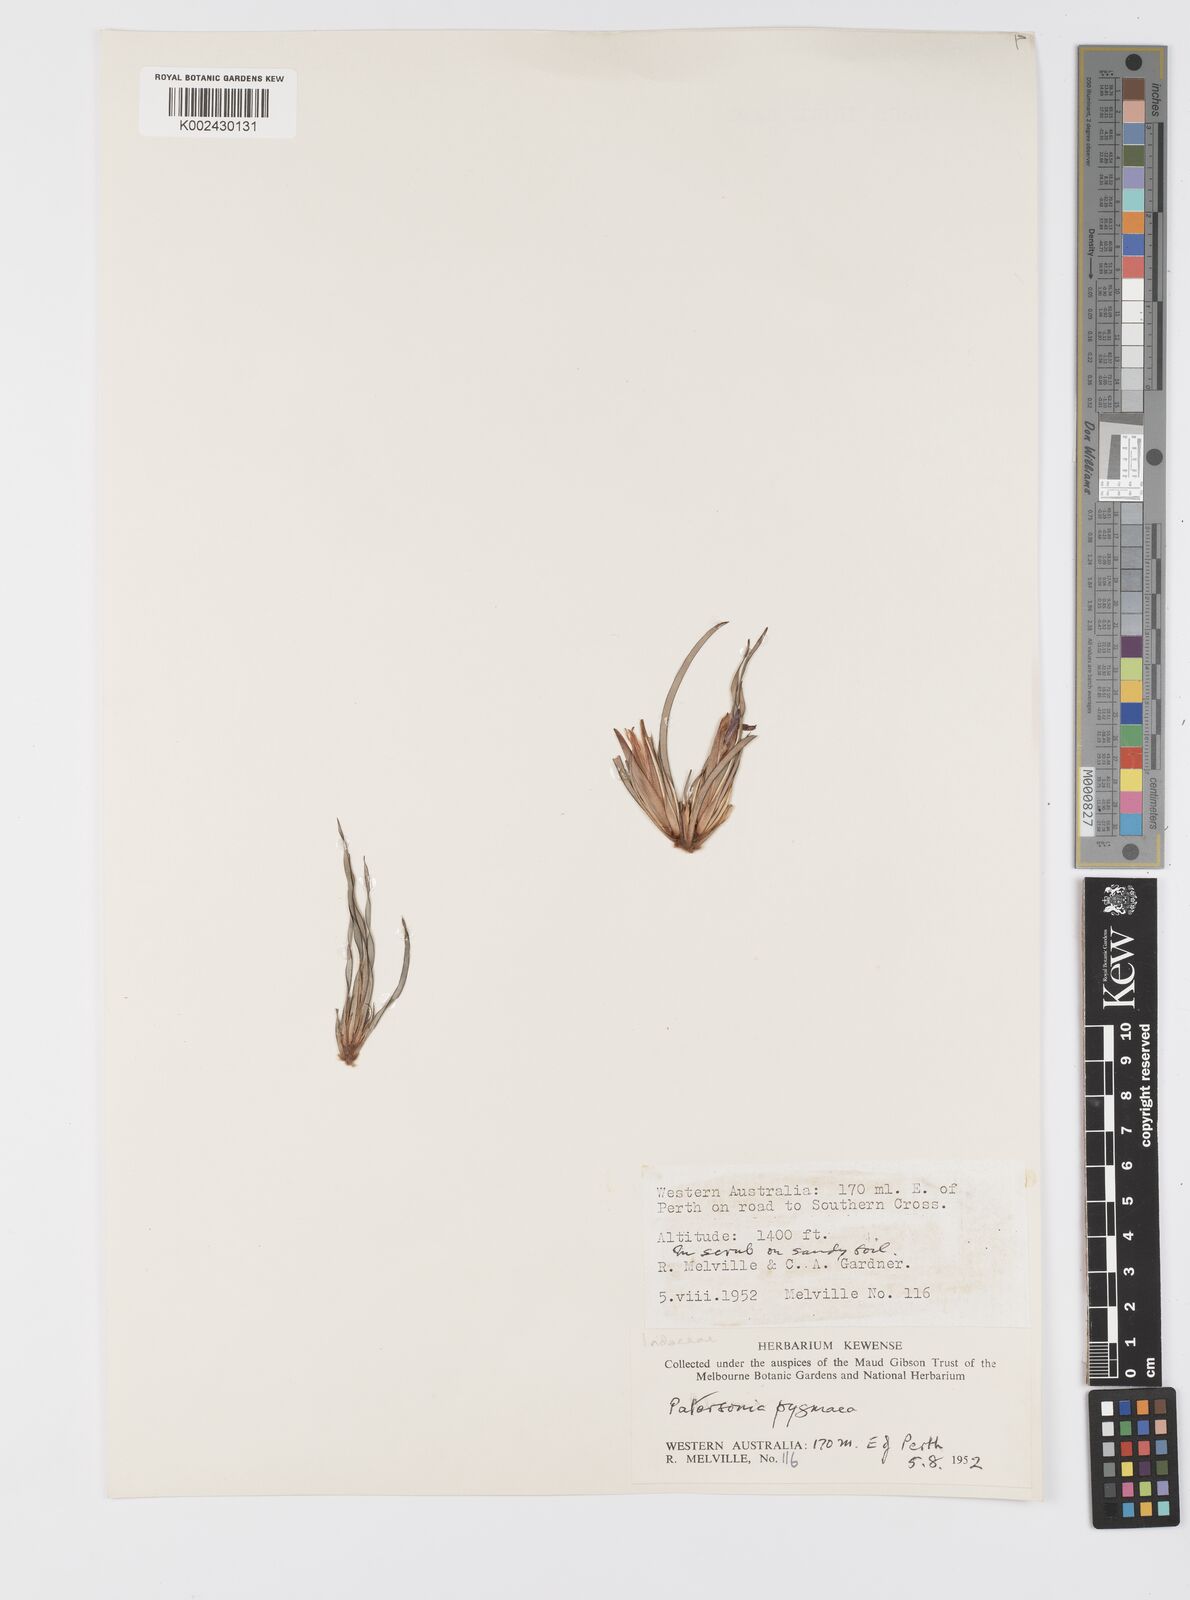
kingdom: Plantae
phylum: Tracheophyta
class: Liliopsida
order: Asparagales
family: Iridaceae
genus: Patersonia
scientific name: Patersonia pygmaea
